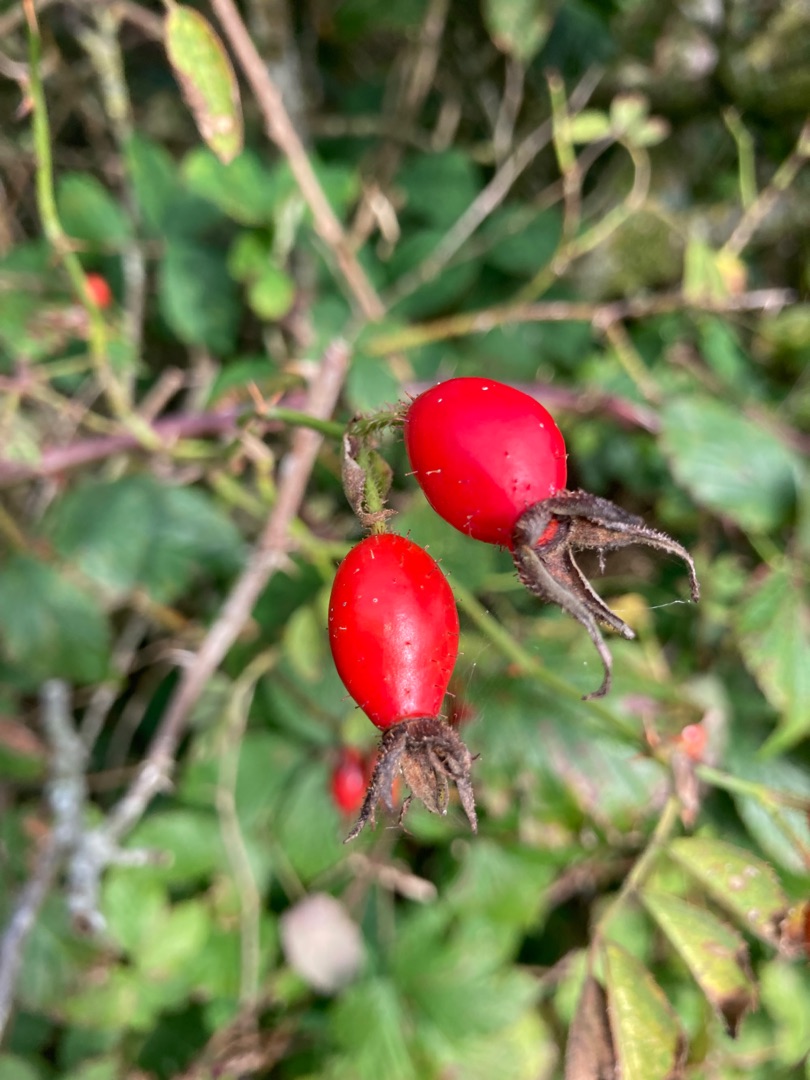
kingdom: Plantae
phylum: Tracheophyta
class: Magnoliopsida
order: Rosales
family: Rosaceae
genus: Rosa
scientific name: Rosa rubiginosa
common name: Æble-rose
